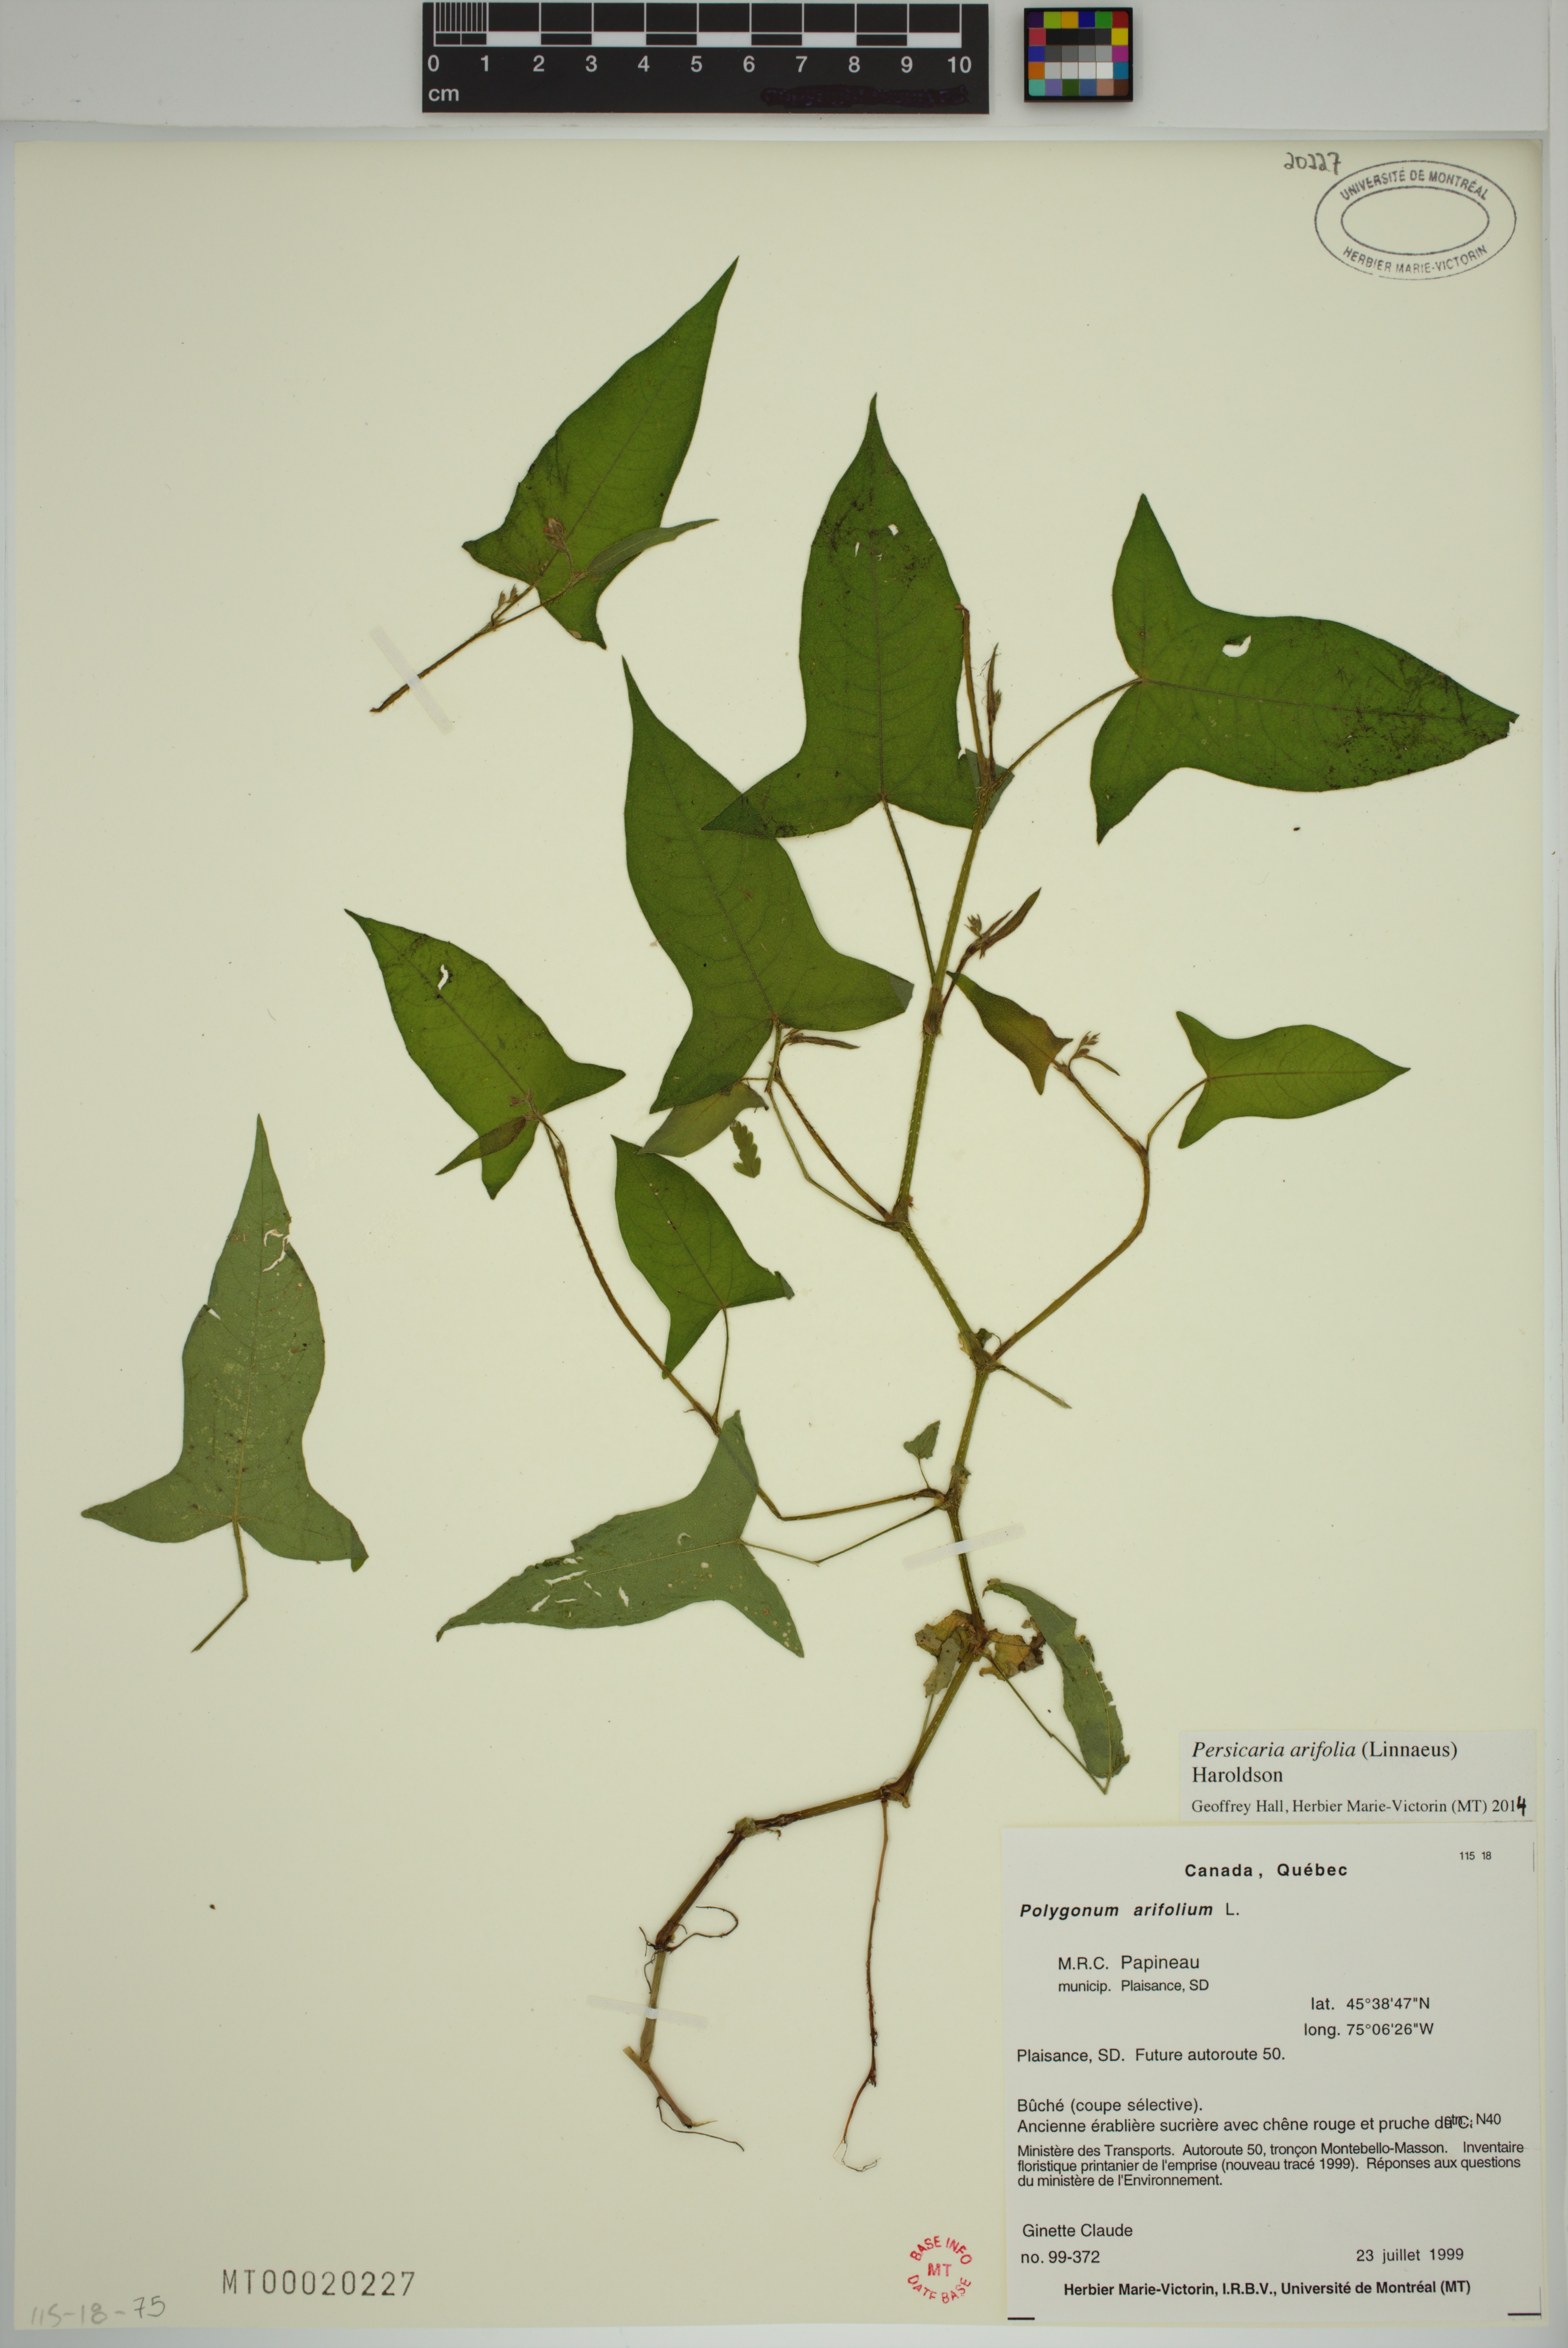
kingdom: Plantae
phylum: Tracheophyta
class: Magnoliopsida
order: Caryophyllales
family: Polygonaceae
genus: Persicaria
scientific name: Persicaria arifolia
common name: Halberd-leaved tear-thumb
